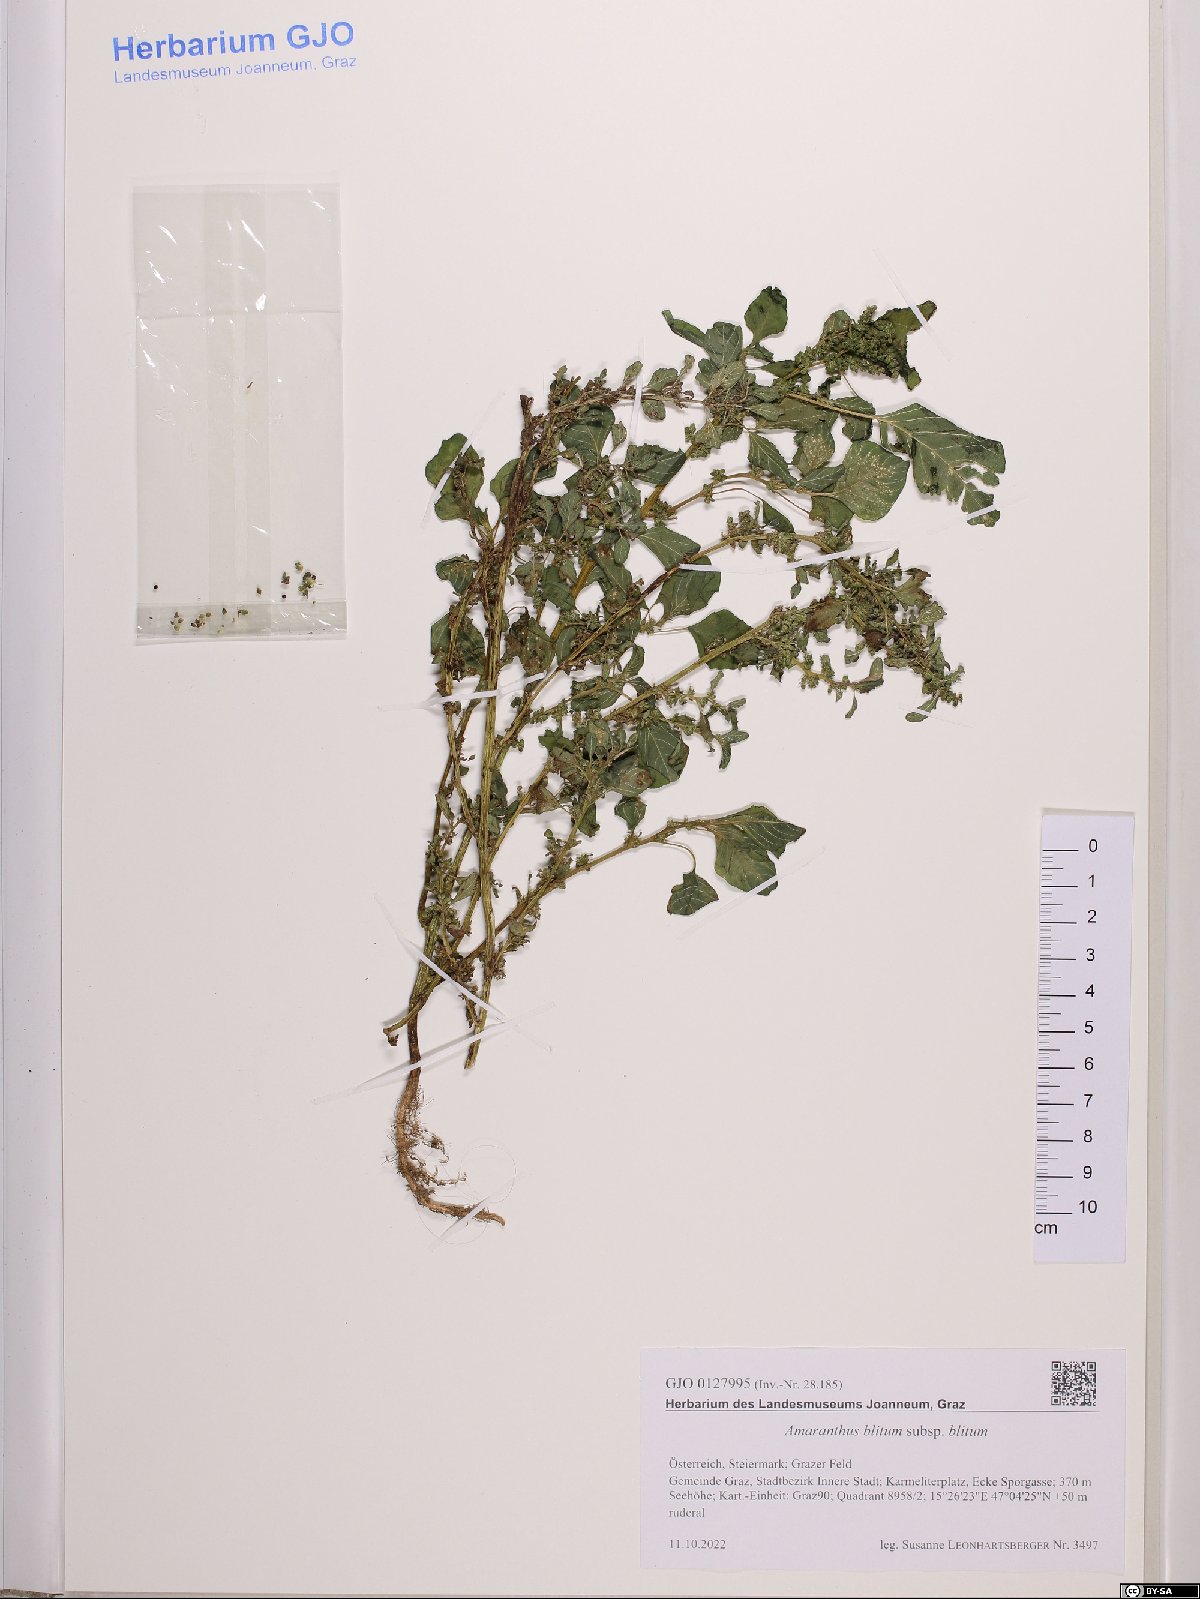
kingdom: Plantae
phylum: Tracheophyta
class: Magnoliopsida
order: Caryophyllales
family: Amaranthaceae
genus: Amaranthus
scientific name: Amaranthus blitum
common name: Purple amaranth
